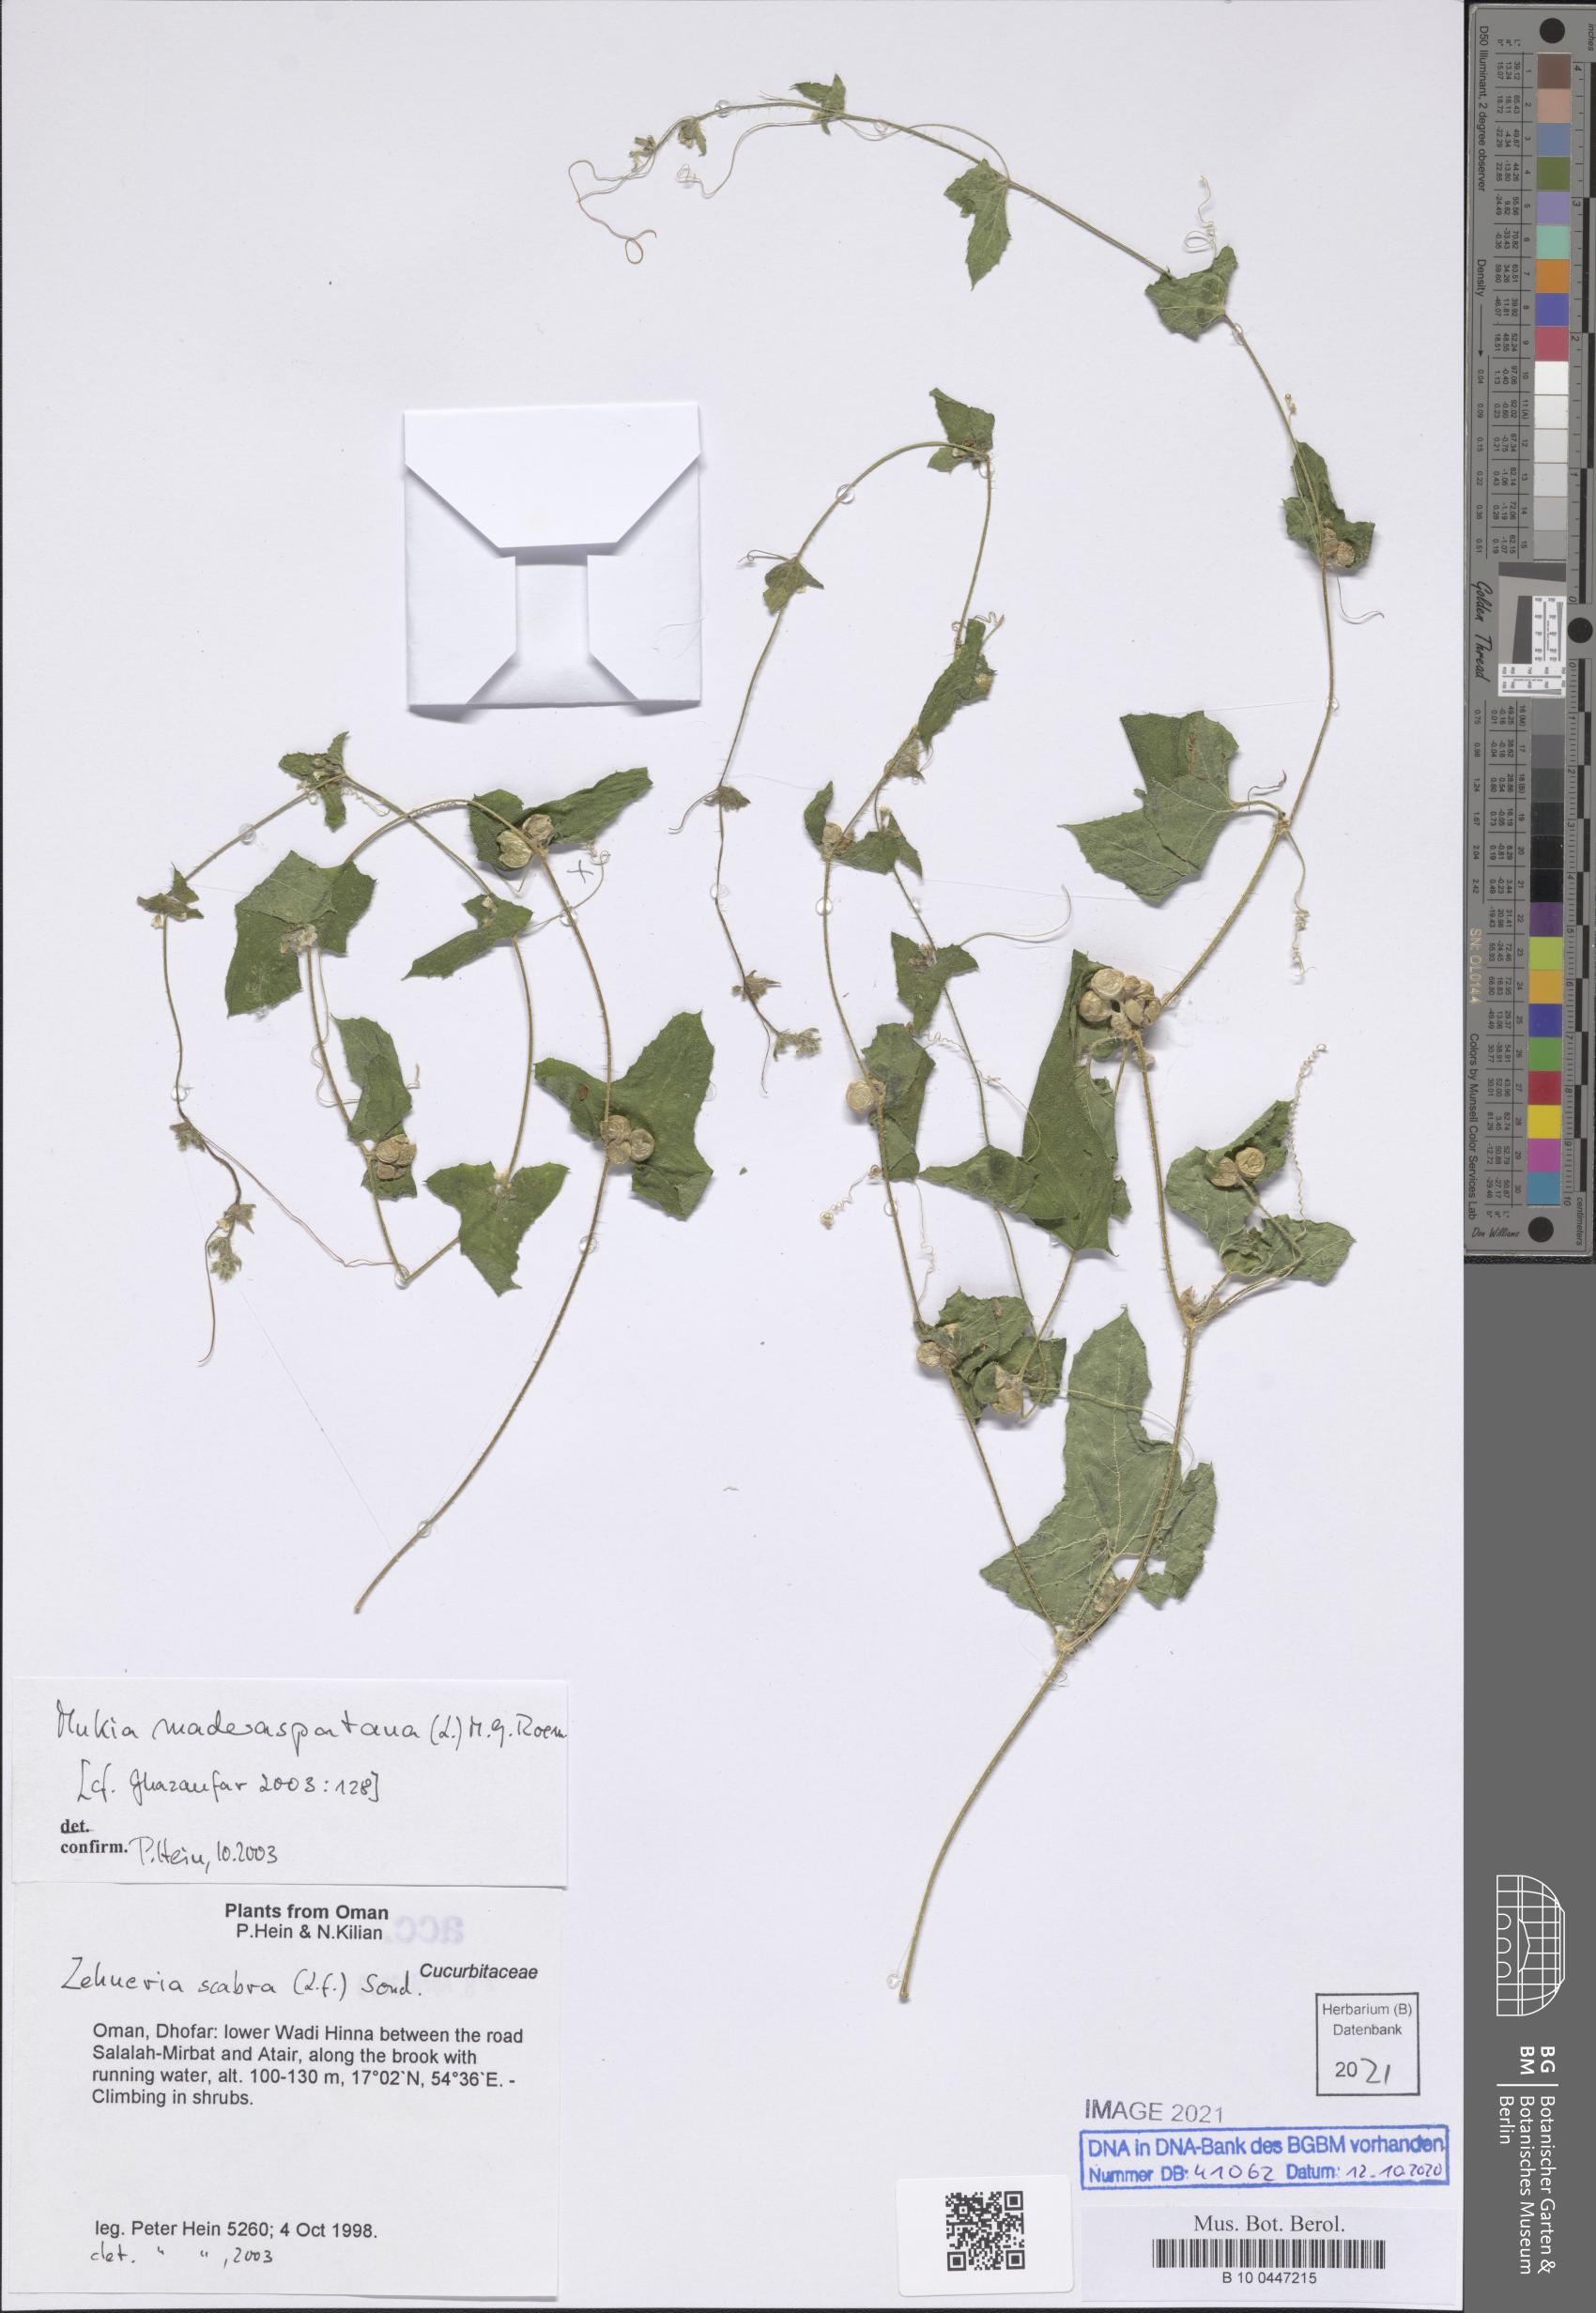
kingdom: Plantae
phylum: Tracheophyta
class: Magnoliopsida
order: Cucurbitales
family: Cucurbitaceae
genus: Cucumis
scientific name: Cucumis maderaspatanus
